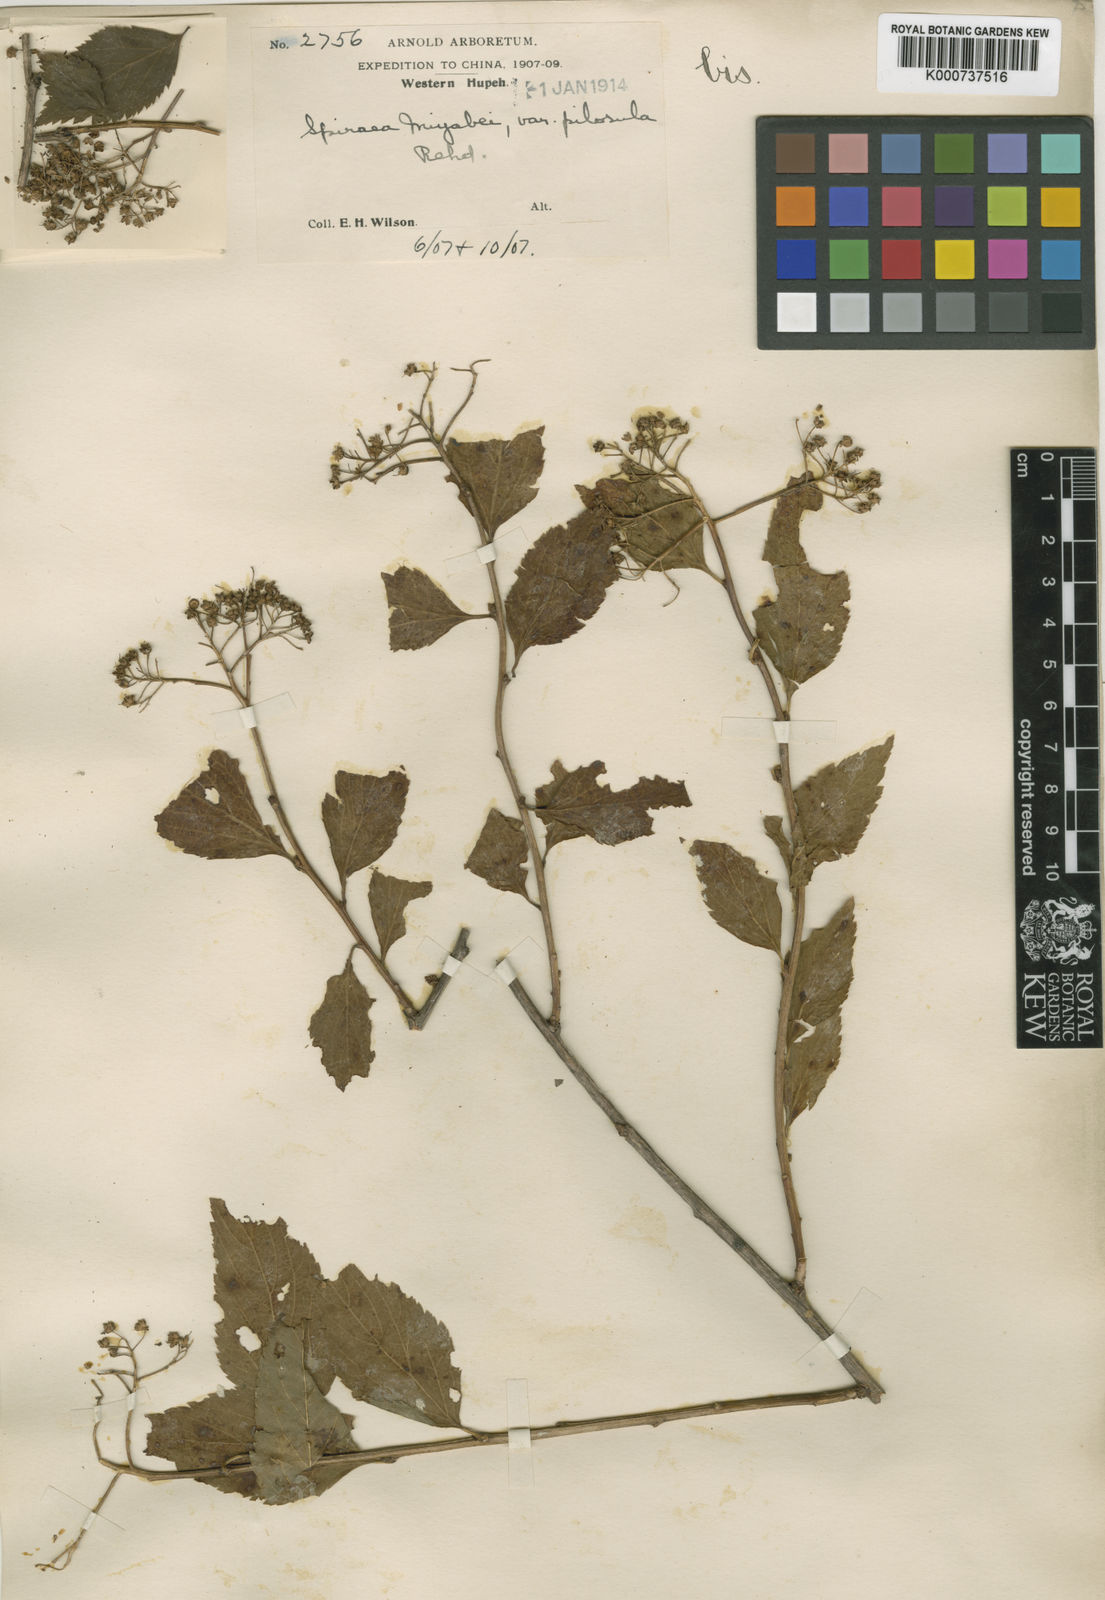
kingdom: Plantae
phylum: Tracheophyta
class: Magnoliopsida
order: Rosales
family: Rosaceae
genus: Spiraea
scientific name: Spiraea miyabei
